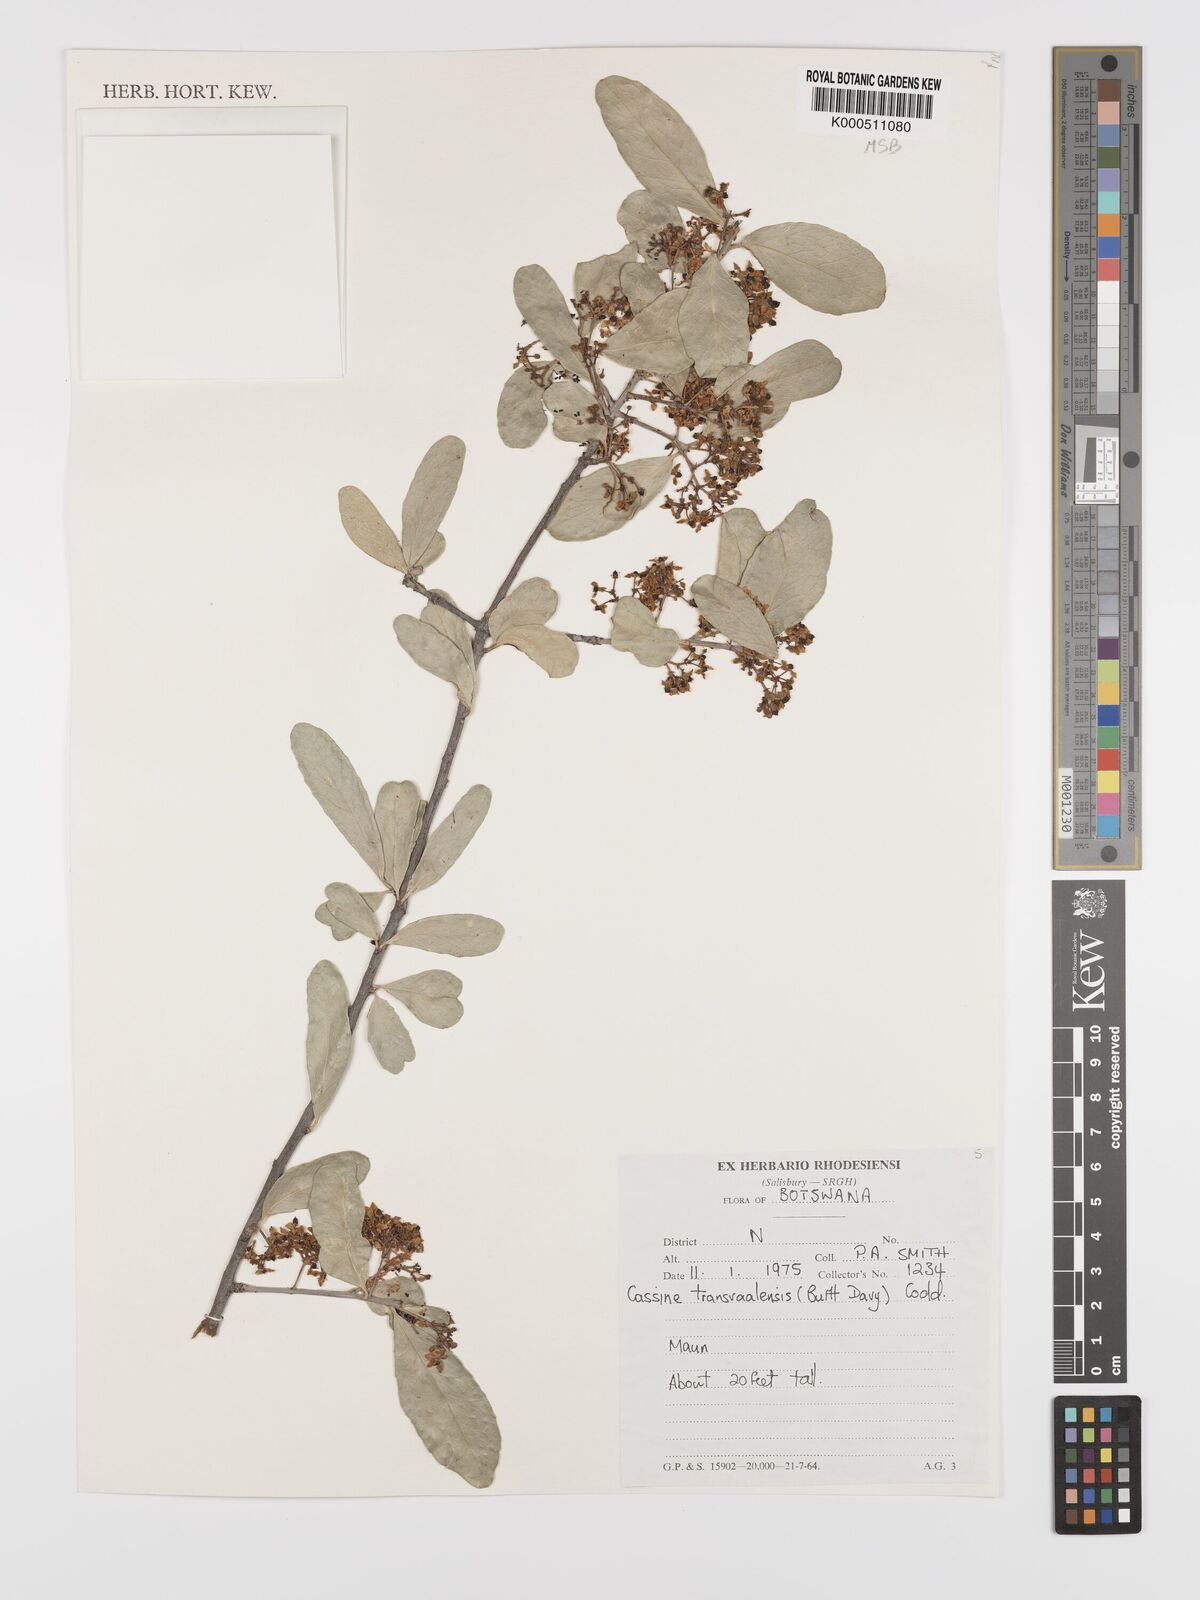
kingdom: Plantae
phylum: Tracheophyta
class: Magnoliopsida
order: Celastrales
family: Celastraceae
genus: Elaeodendron
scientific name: Elaeodendron transvaalense
